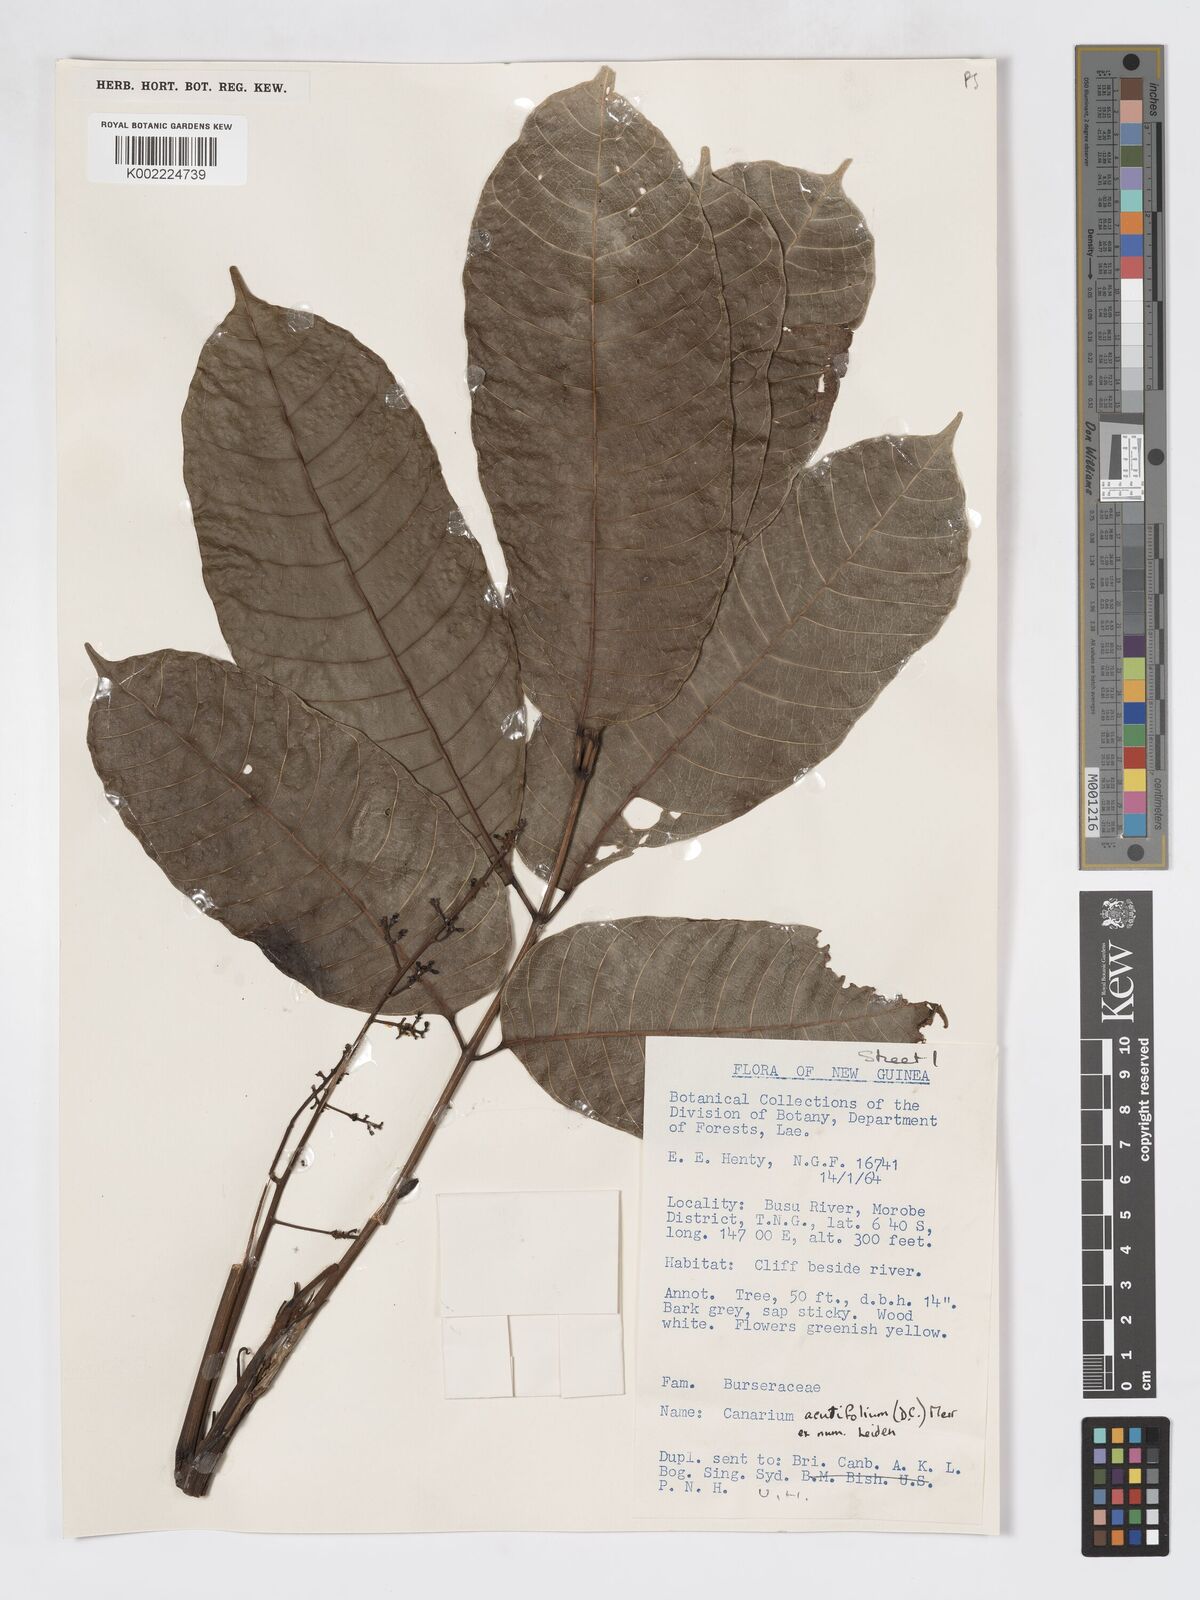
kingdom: Plantae
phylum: Tracheophyta
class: Magnoliopsida
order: Sapindales
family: Burseraceae
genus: Canarium
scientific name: Canarium acutifolium
